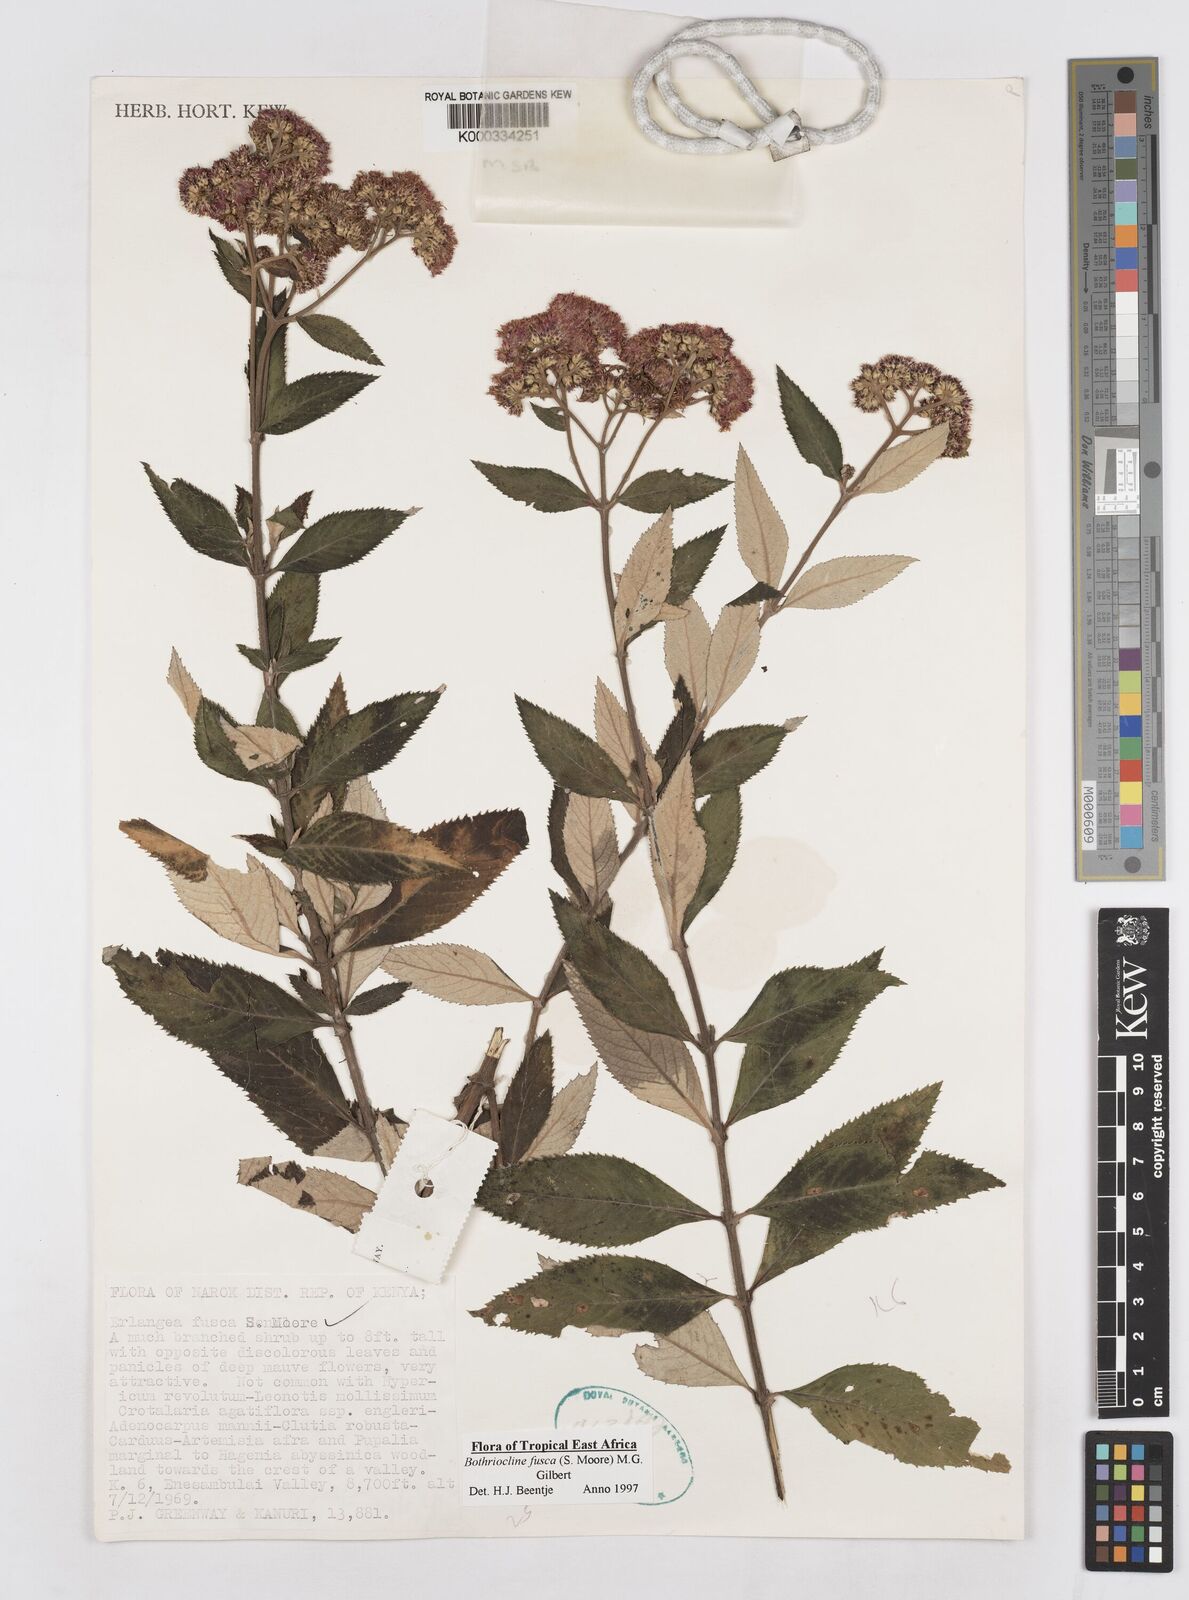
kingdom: Plantae
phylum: Tracheophyta
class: Magnoliopsida
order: Asterales
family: Asteraceae
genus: Bothriocline
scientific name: Bothriocline fusca
